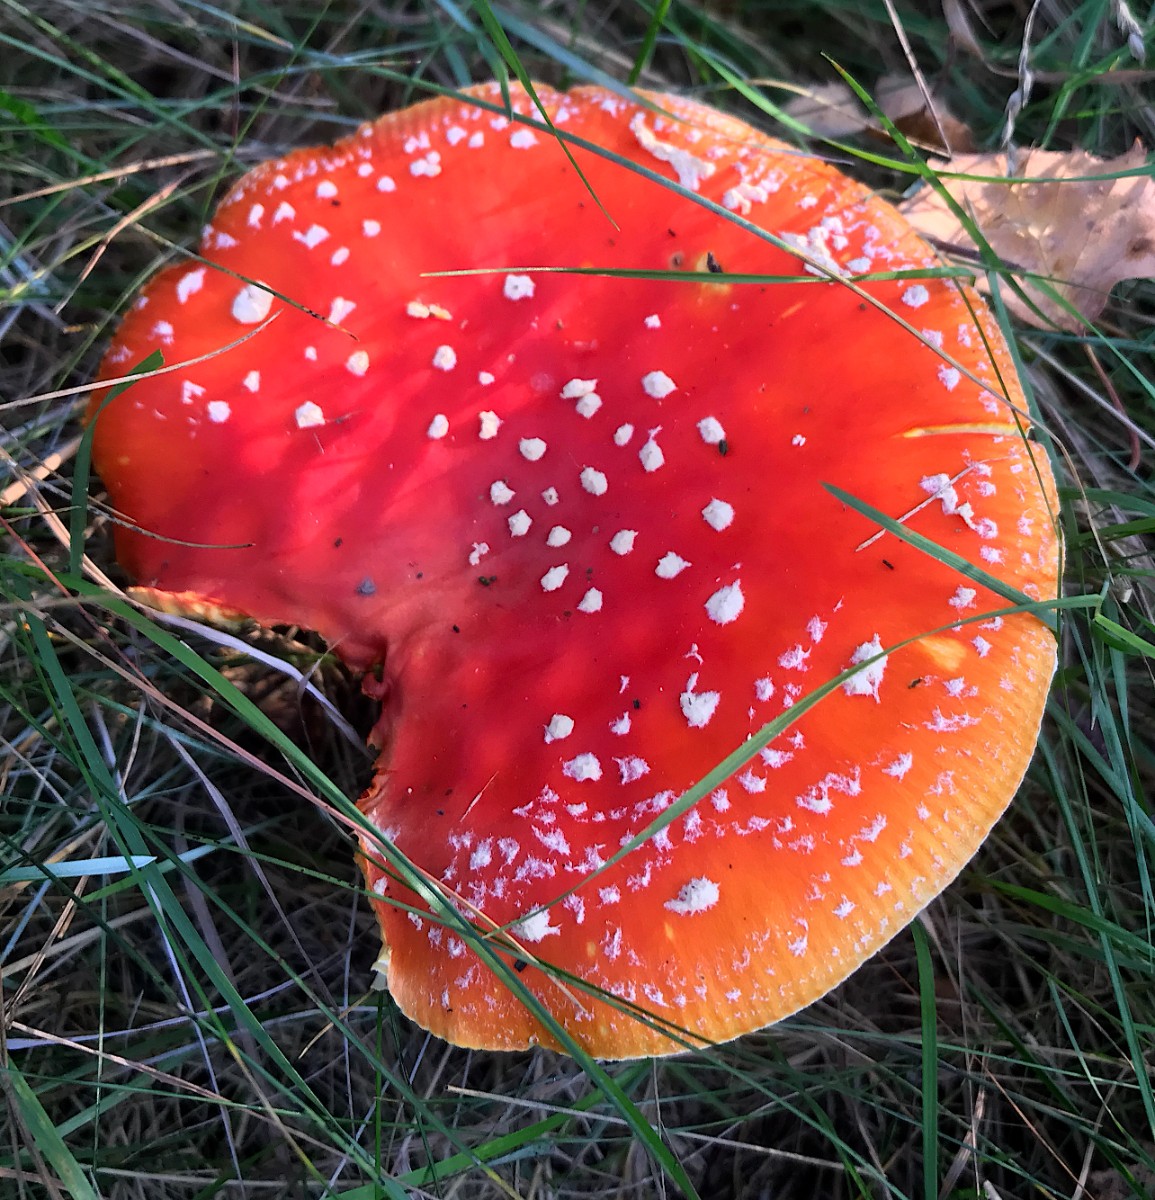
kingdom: Fungi
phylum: Basidiomycota
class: Agaricomycetes
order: Agaricales
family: Amanitaceae
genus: Amanita
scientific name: Amanita muscaria
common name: rød fluesvamp
